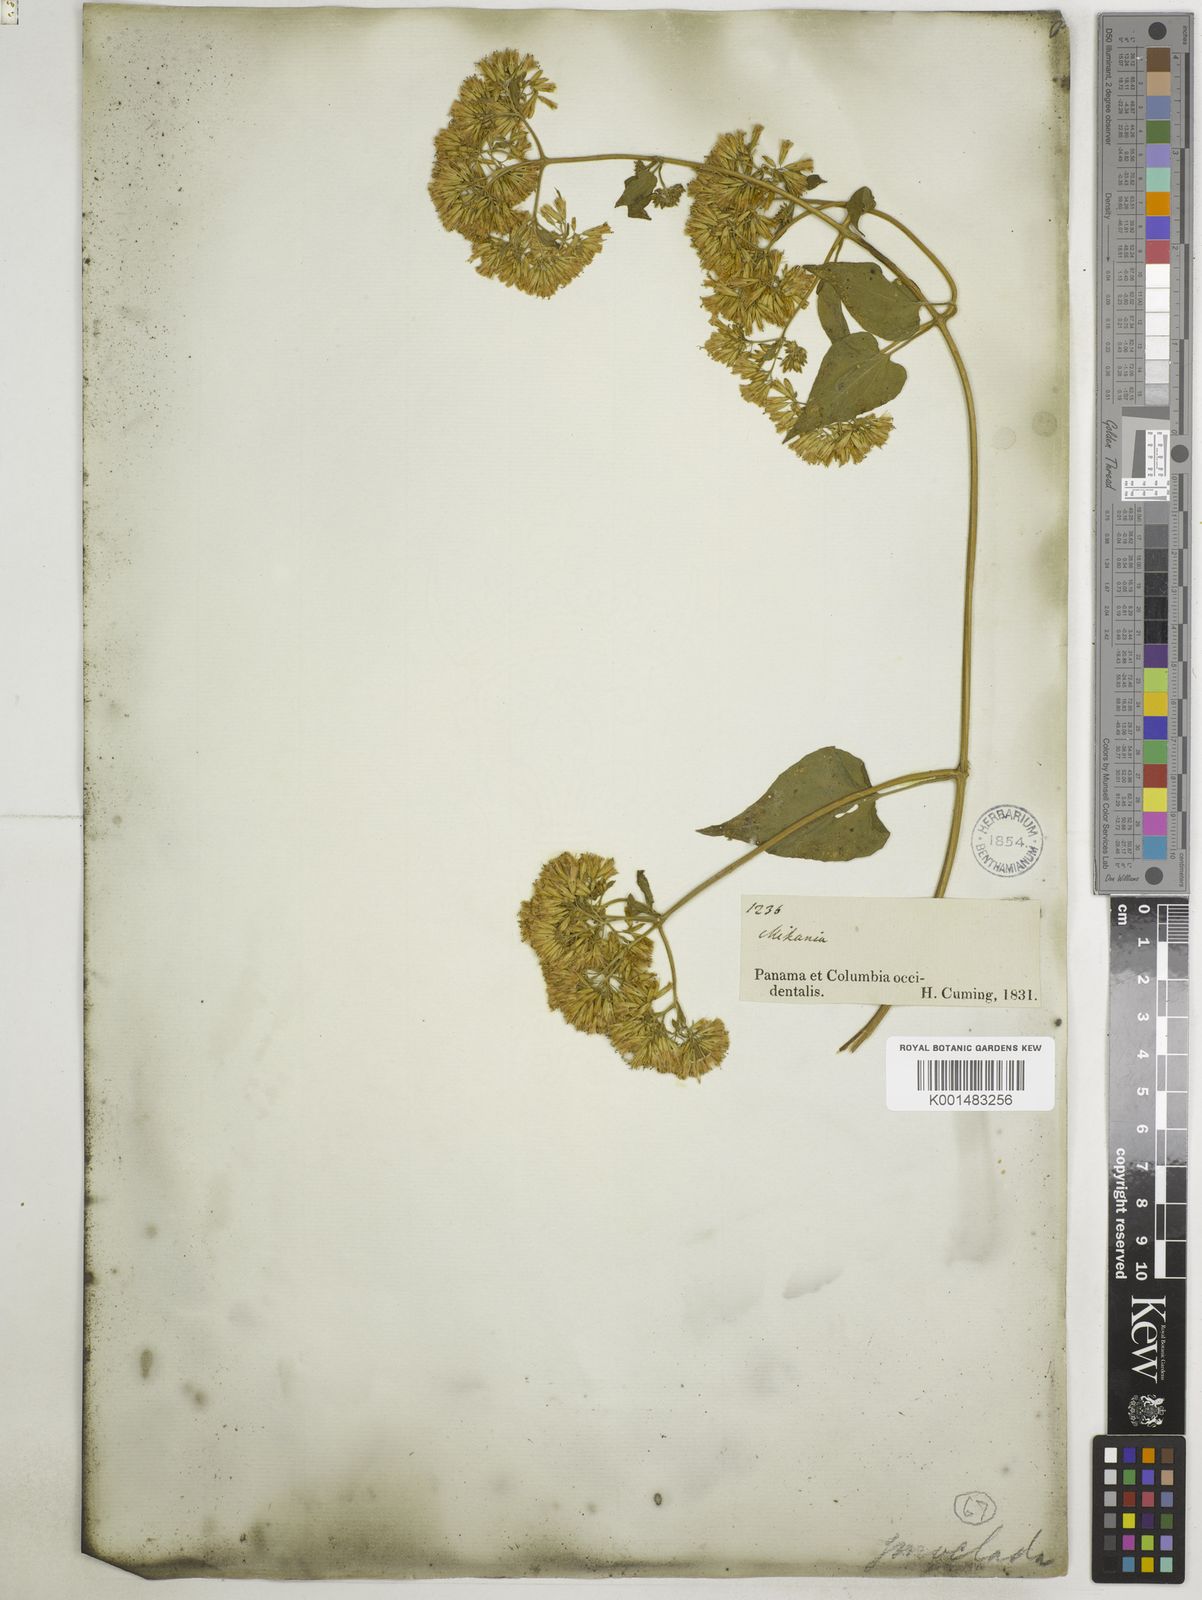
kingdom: Plantae
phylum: Tracheophyta
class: Magnoliopsida
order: Asterales
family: Asteraceae
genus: Mikania
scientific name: Mikania cordifolia
